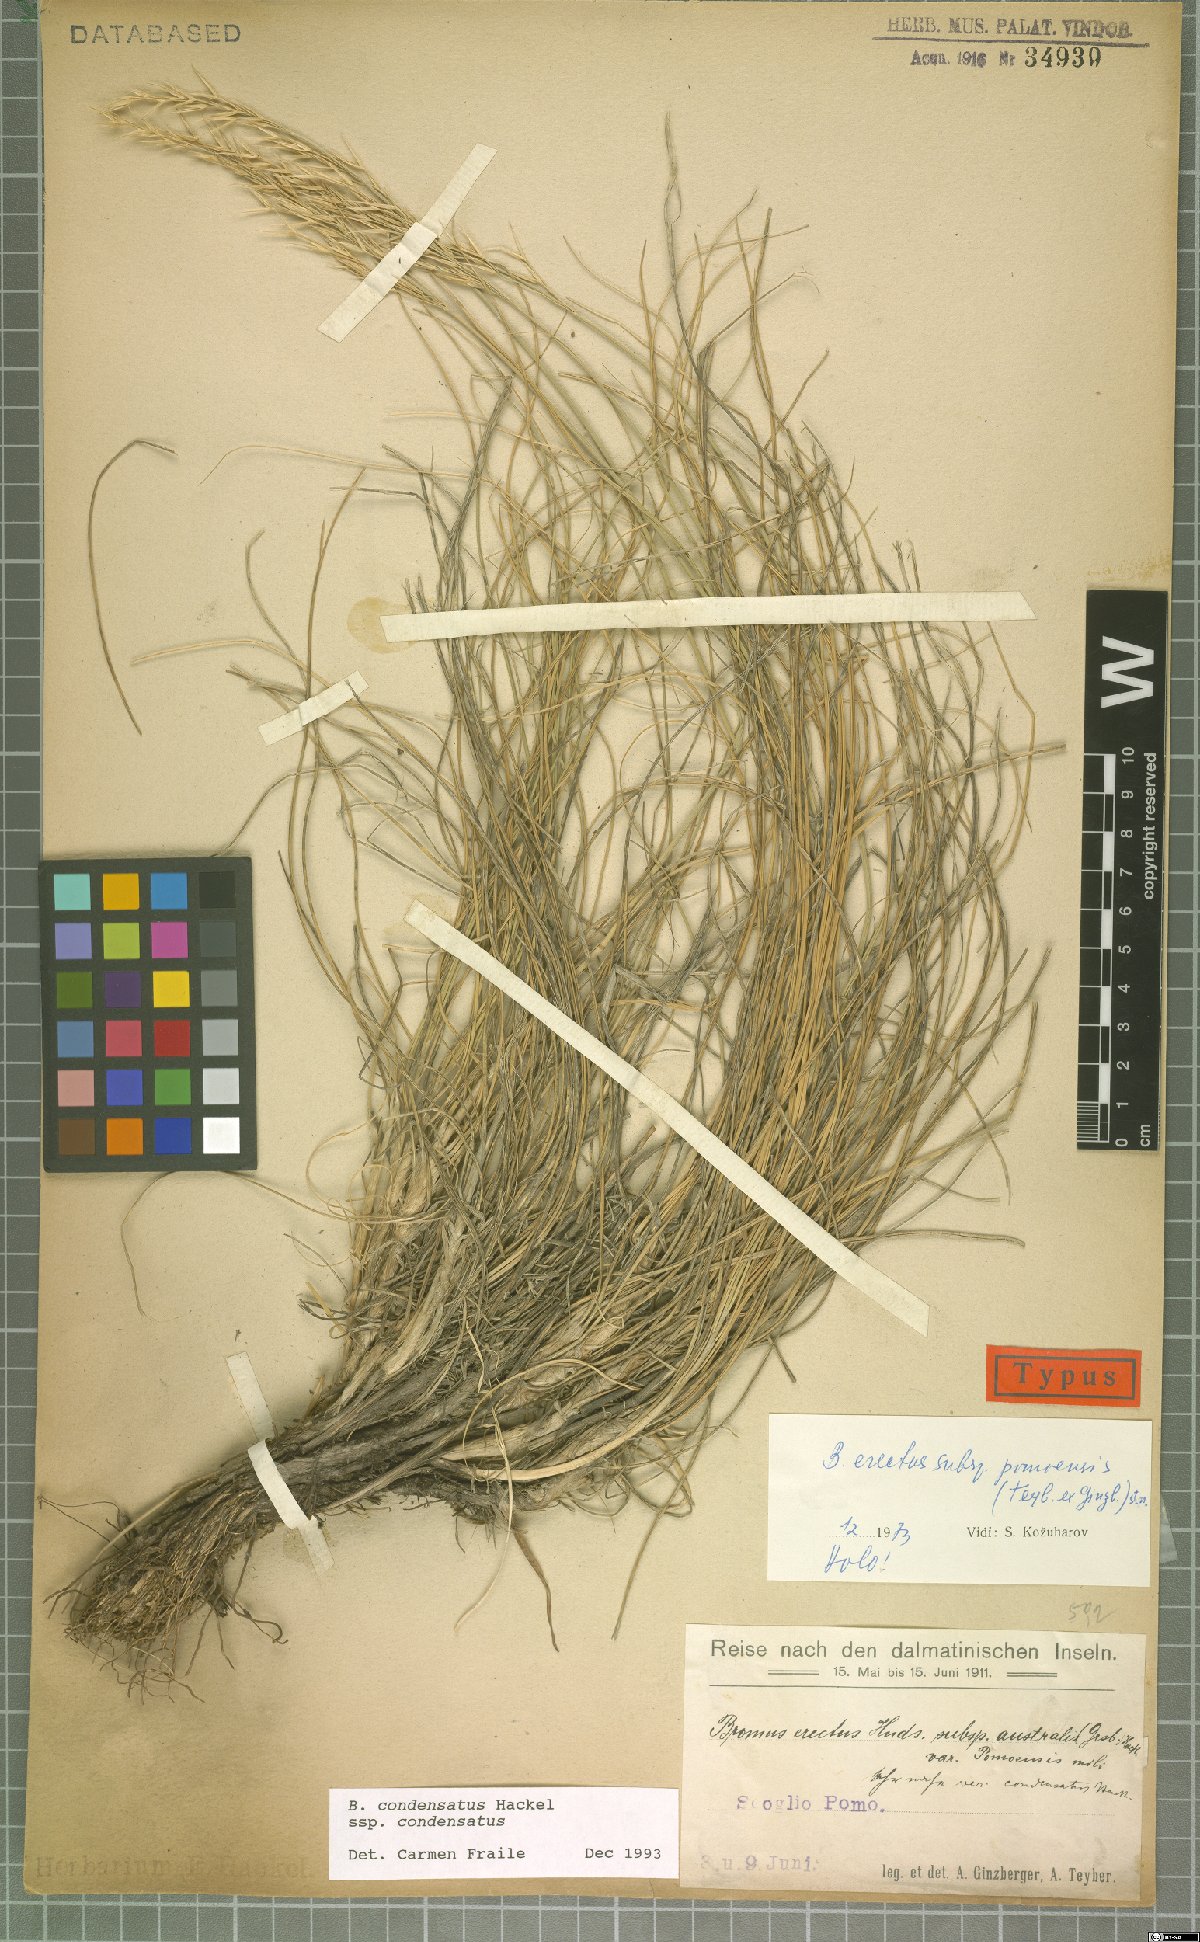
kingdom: Plantae
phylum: Tracheophyta
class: Liliopsida
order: Poales
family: Poaceae
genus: Bromus
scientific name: Bromus condensatus
